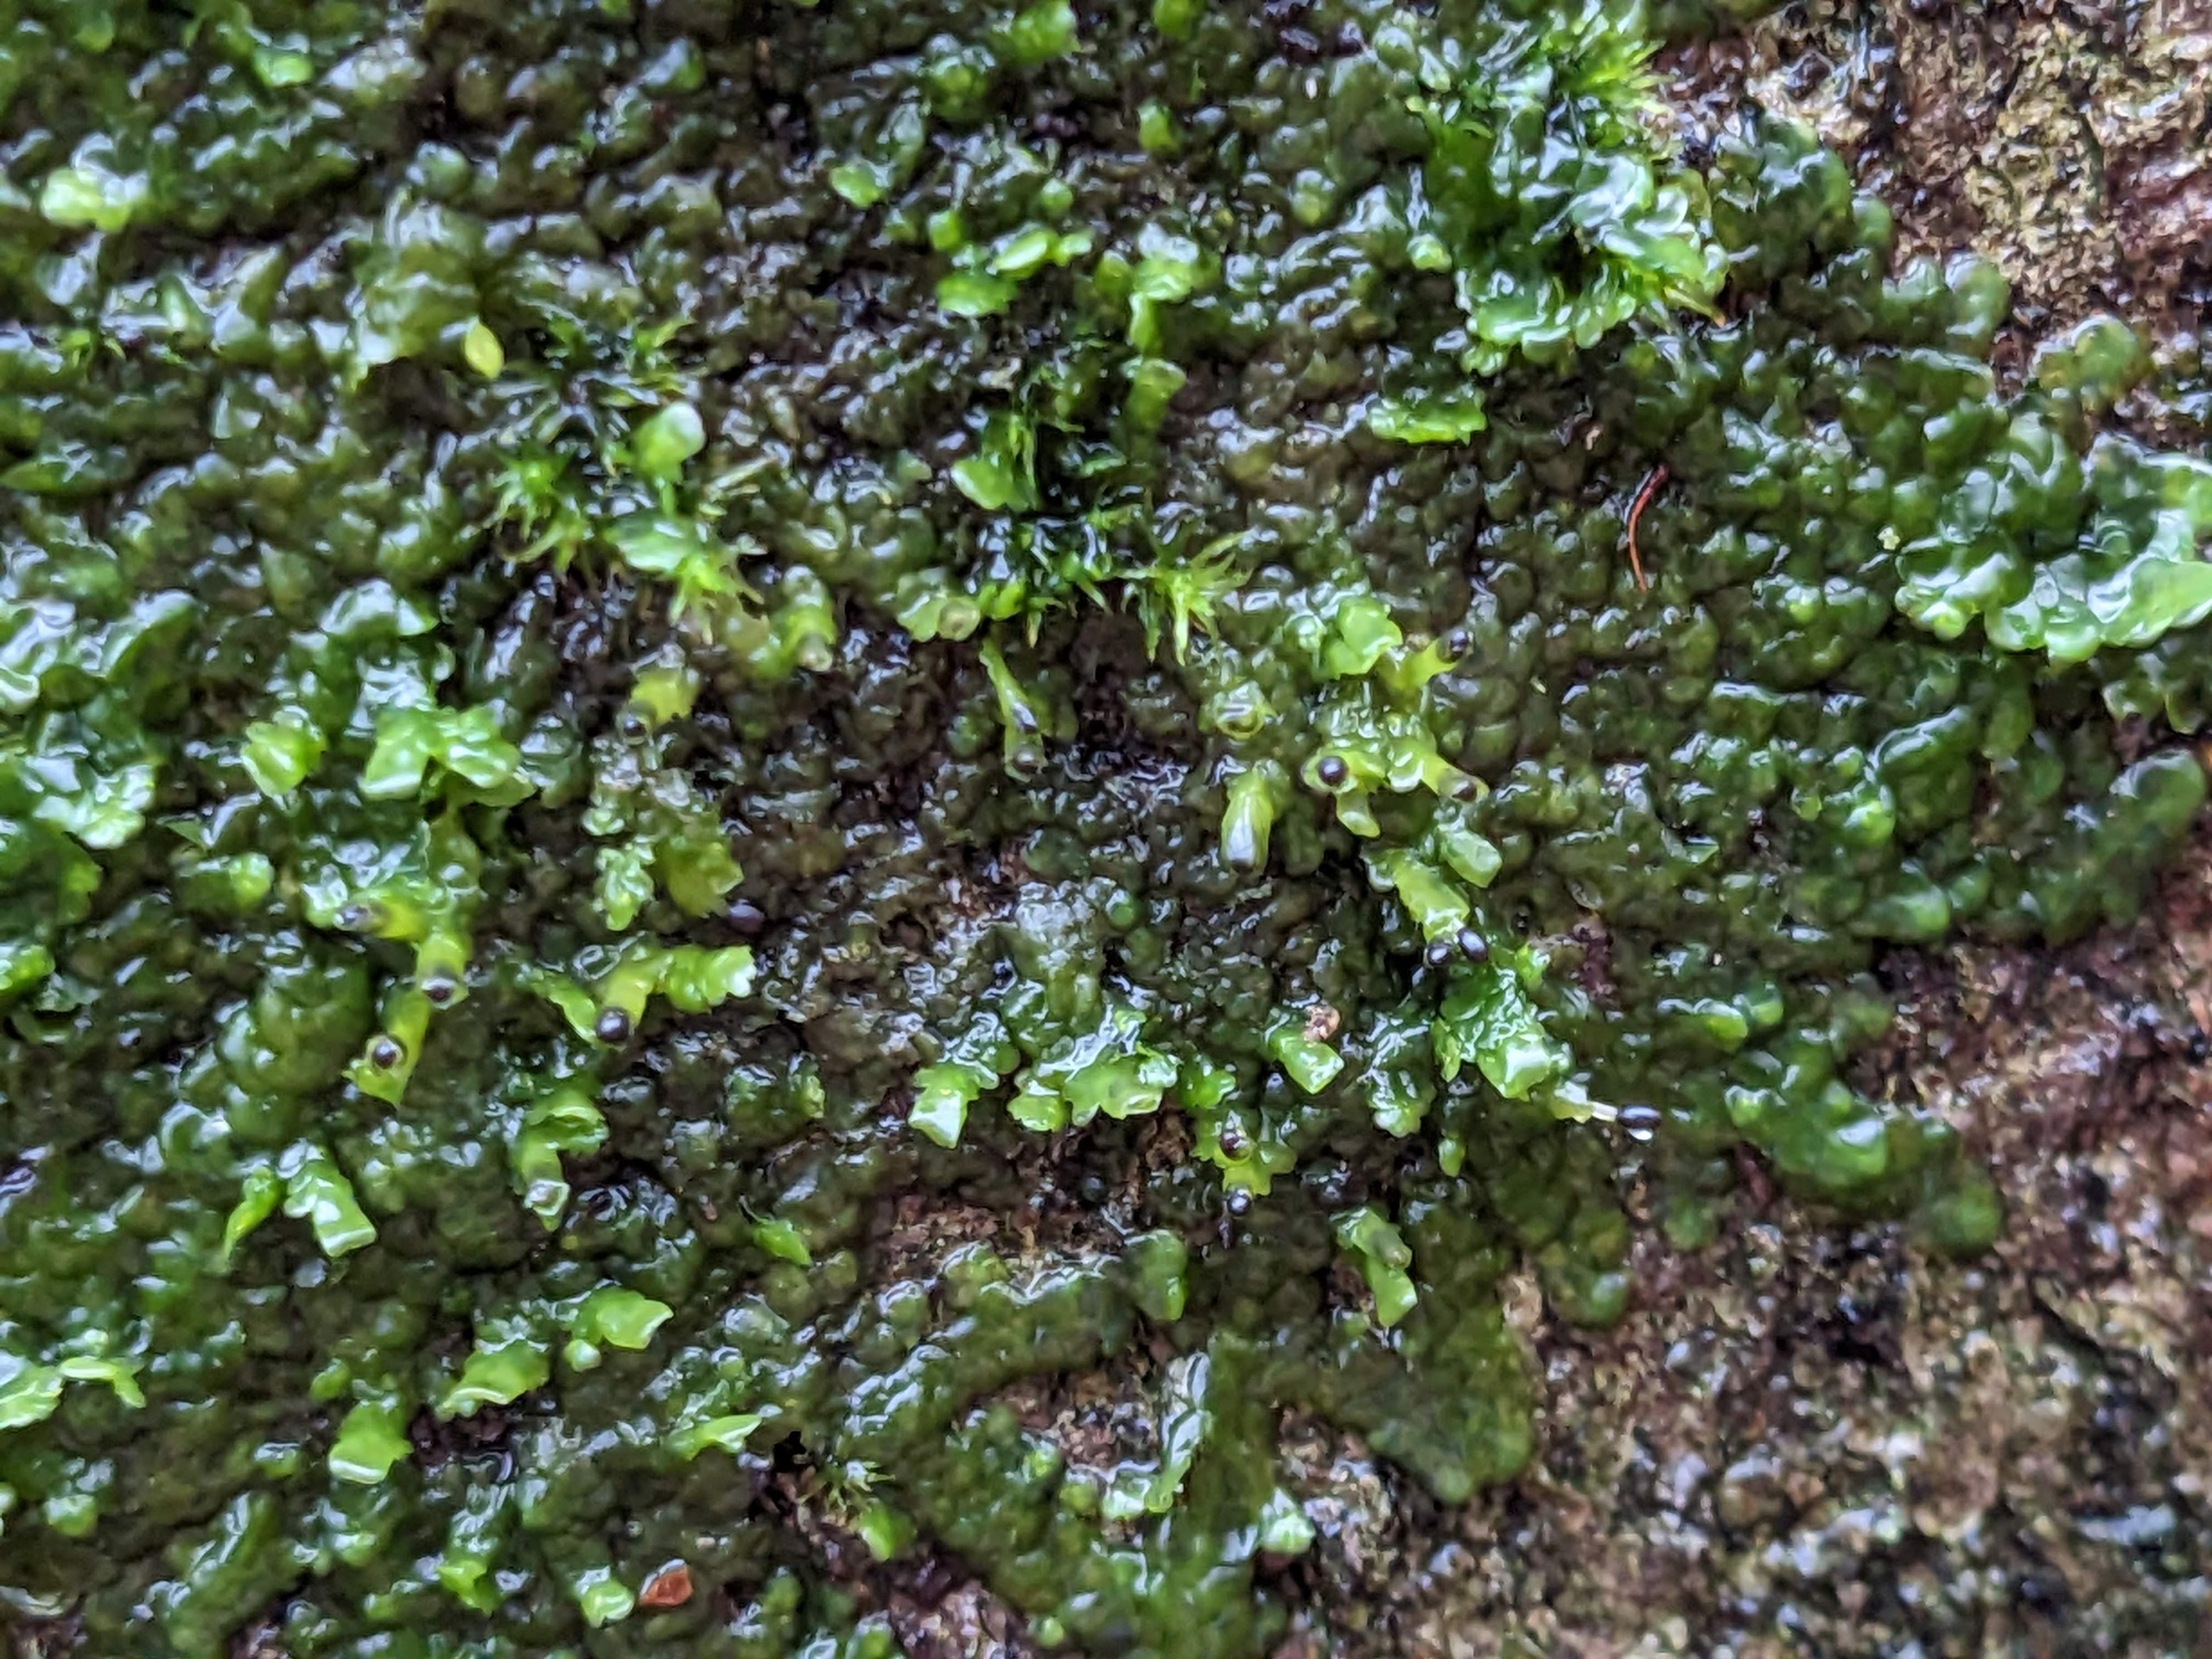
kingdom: Plantae
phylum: Marchantiophyta
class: Jungermanniopsida
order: Porellales
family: Radulaceae
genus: Radula
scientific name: Radula complanata
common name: Almindelig spartelmos
